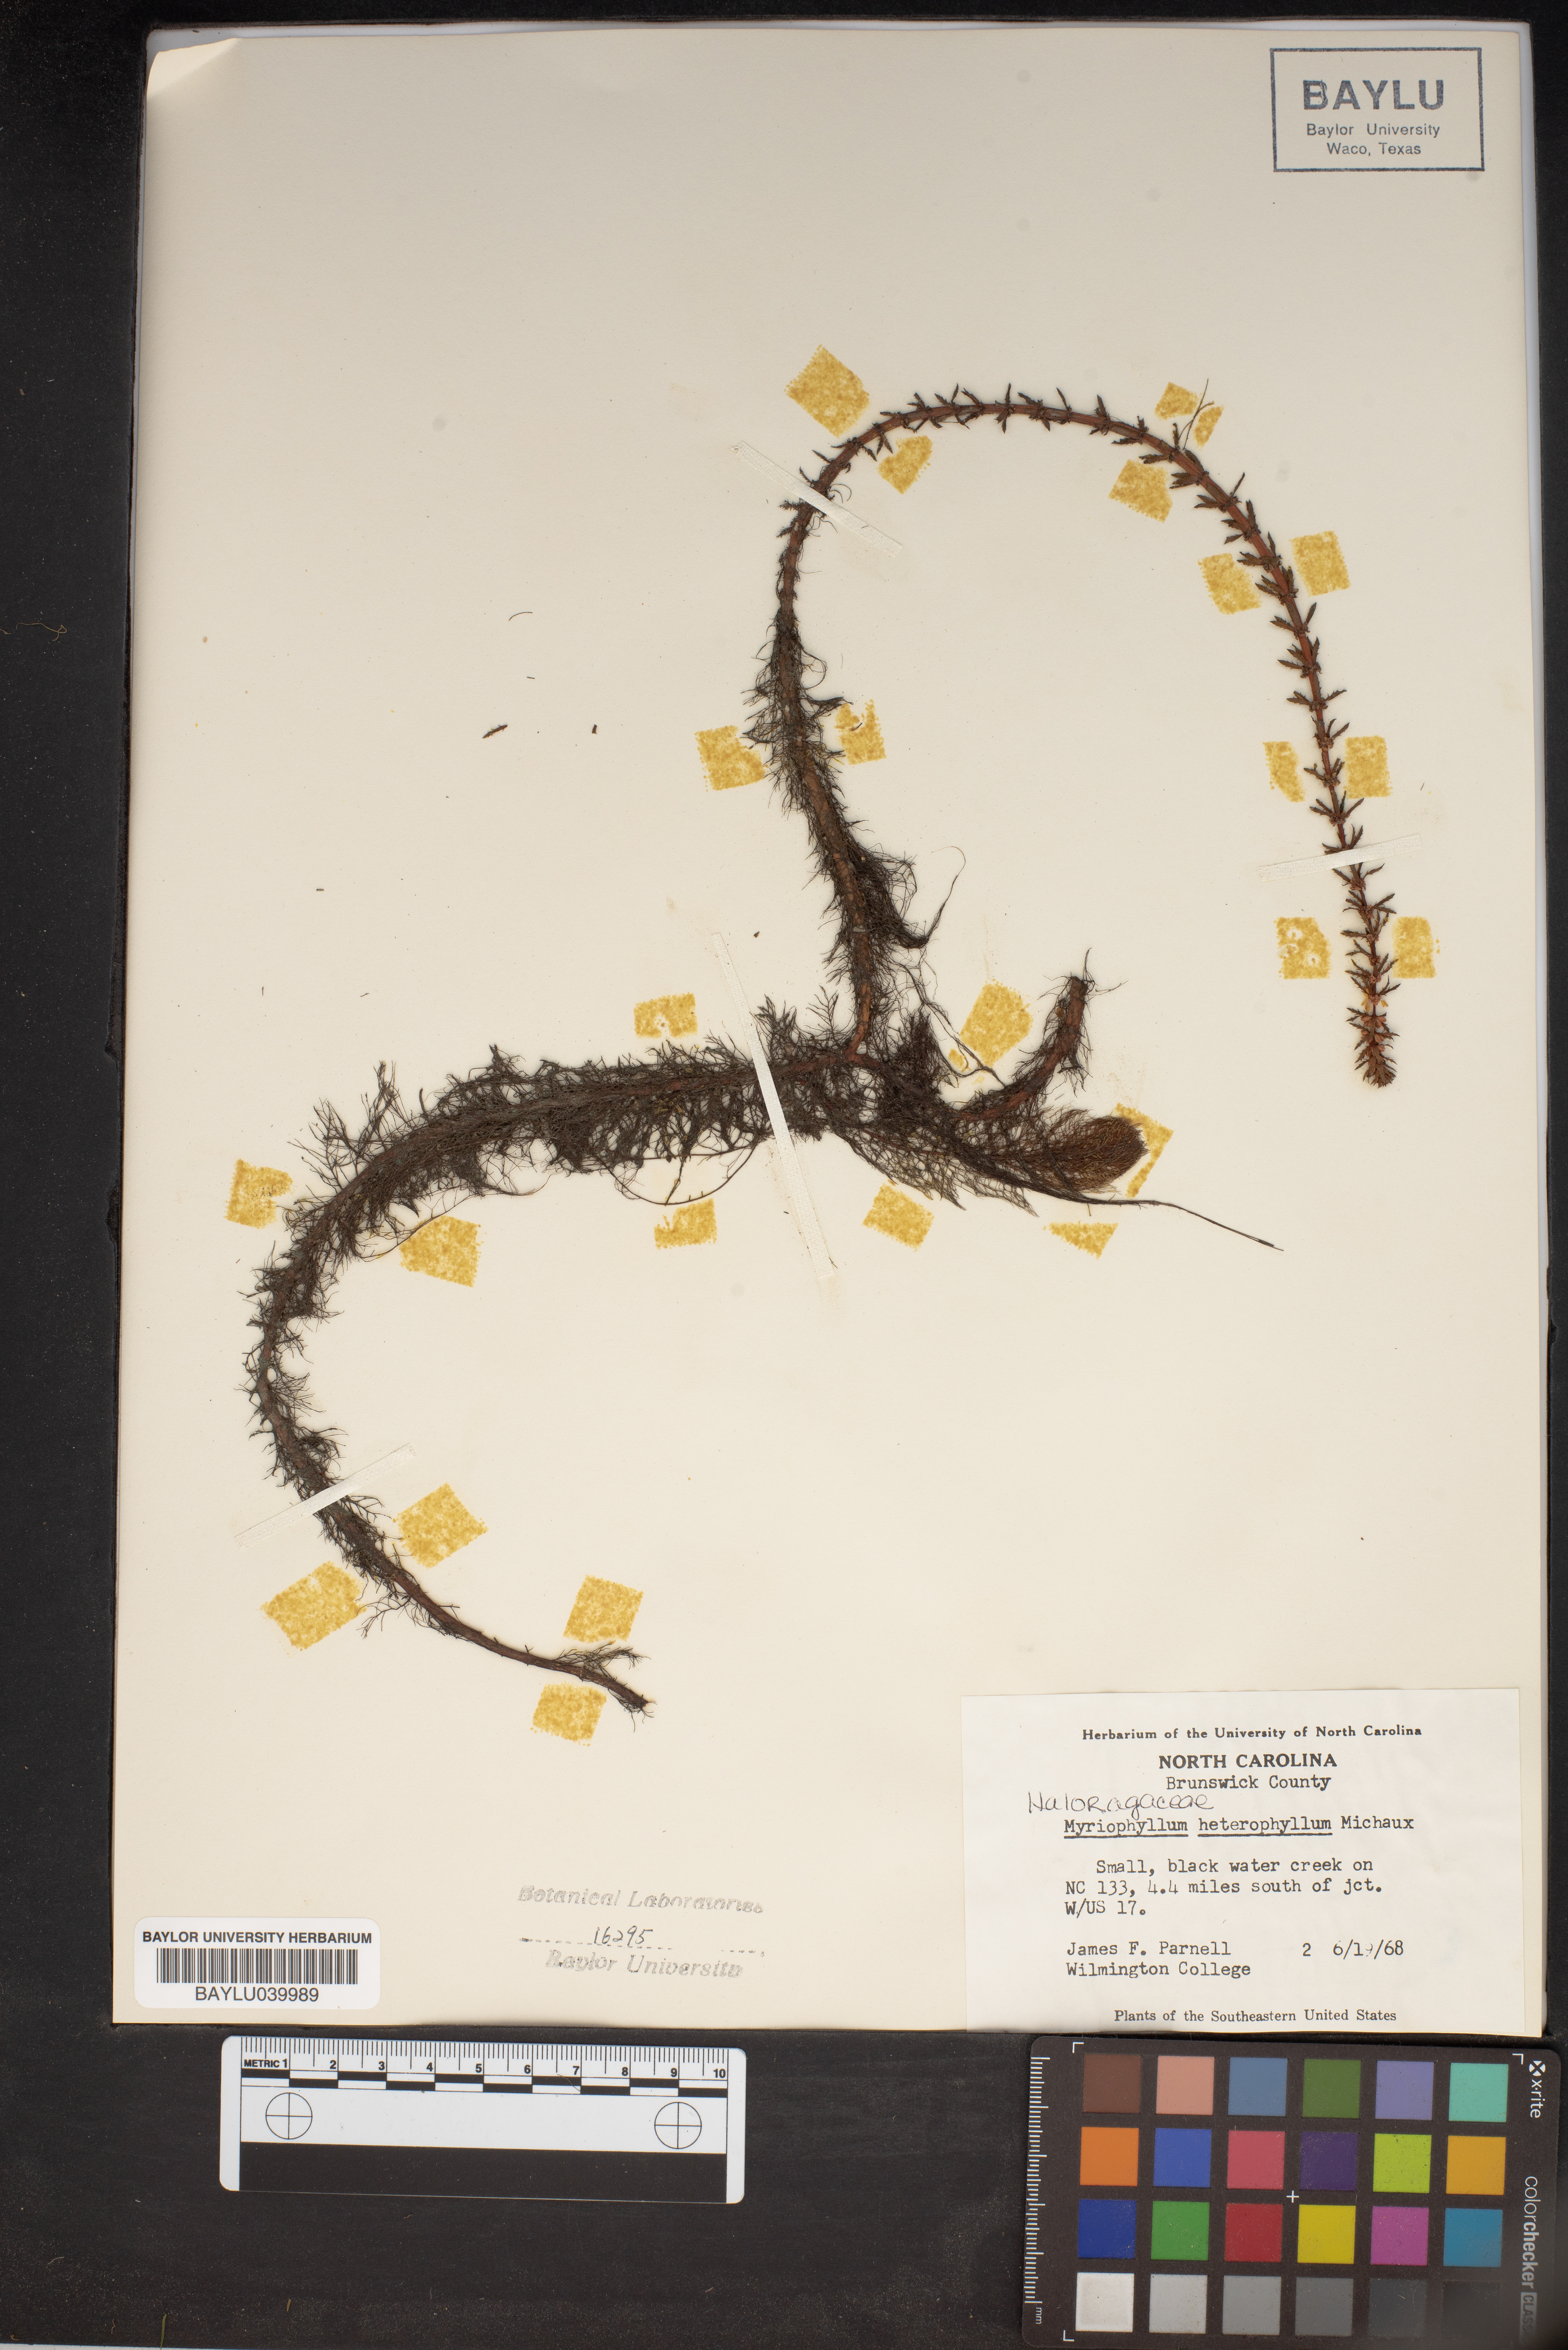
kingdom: Plantae
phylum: Tracheophyta
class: Magnoliopsida
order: Saxifragales
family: Haloragaceae
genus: Myriophyllum
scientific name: Myriophyllum heterophyllum
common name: Variable watermilfoil
